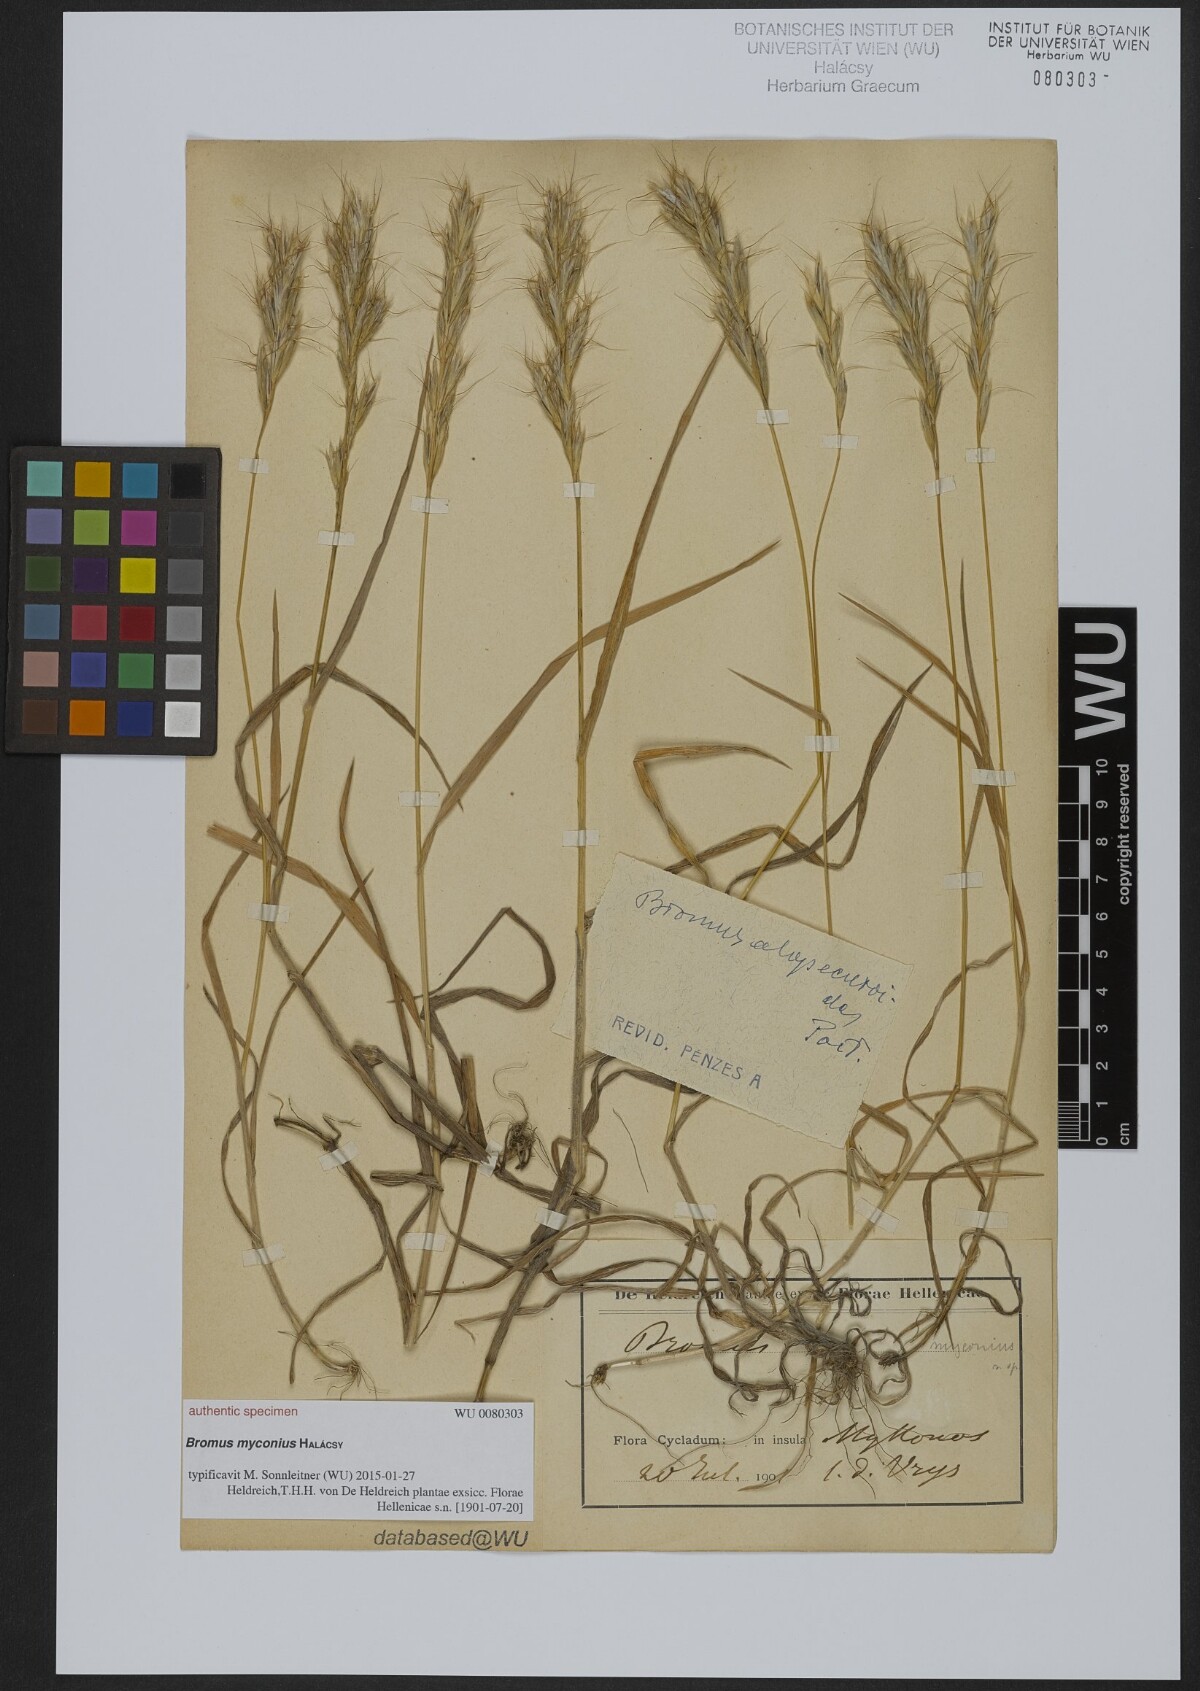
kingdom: Plantae
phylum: Tracheophyta
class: Liliopsida
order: Poales
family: Poaceae
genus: Bromus
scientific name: Bromus
